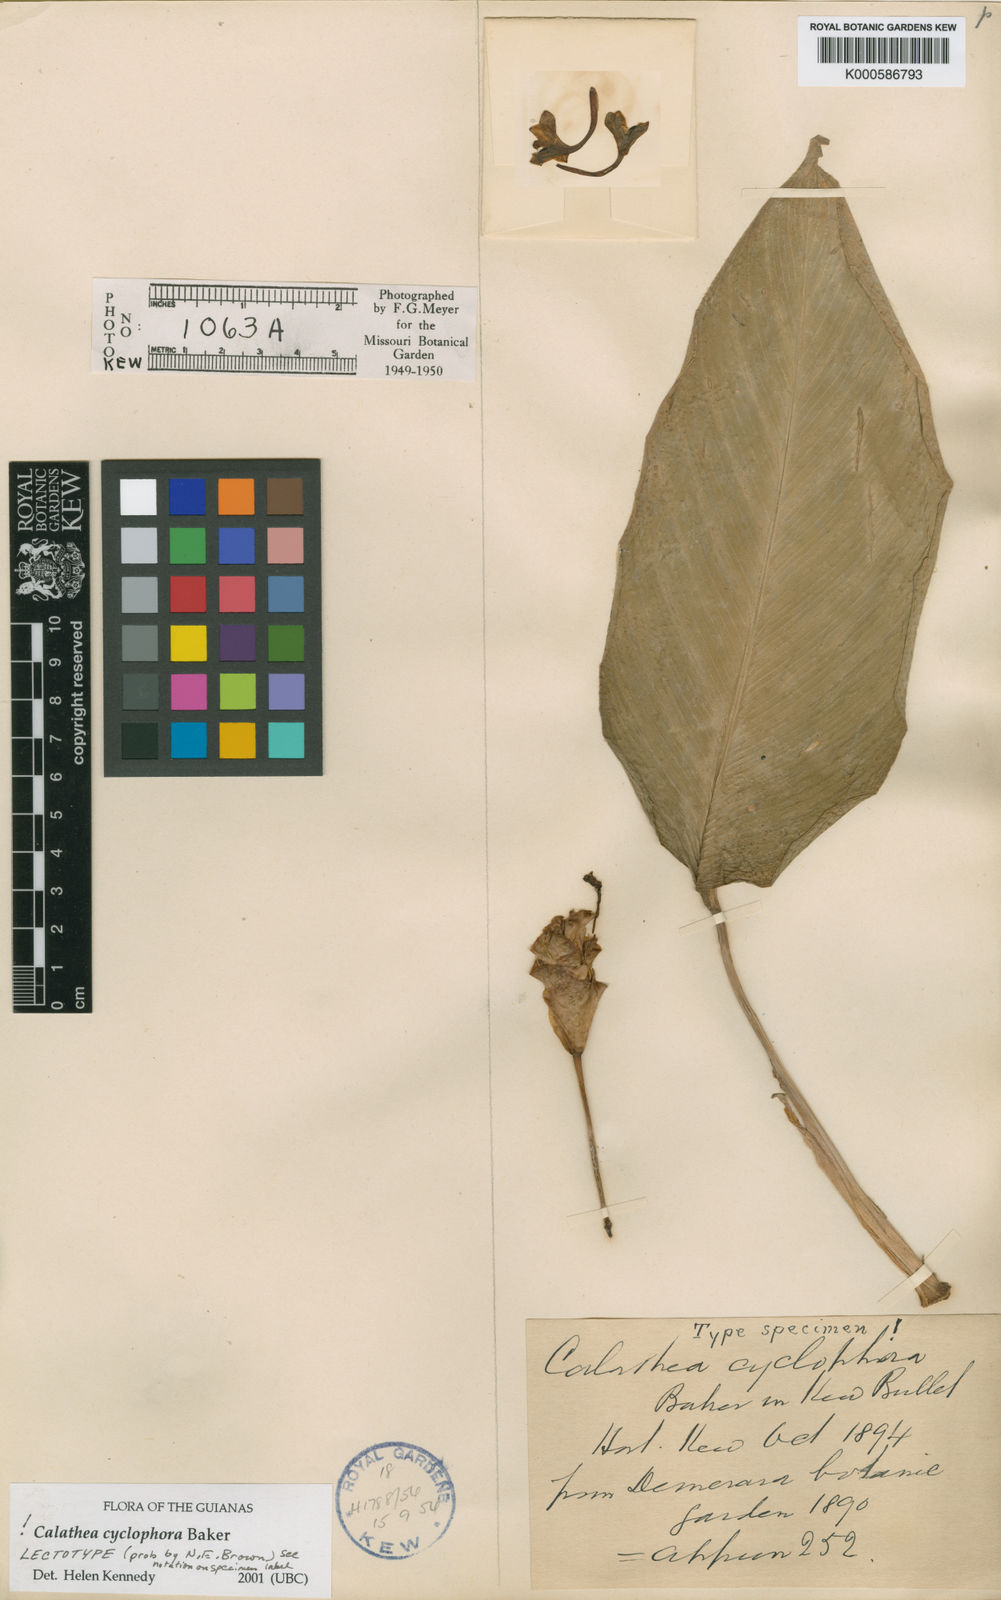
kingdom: Plantae
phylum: Tracheophyta
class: Liliopsida
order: Zingiberales
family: Marantaceae
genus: Goeppertia
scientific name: Goeppertia cyclophora
